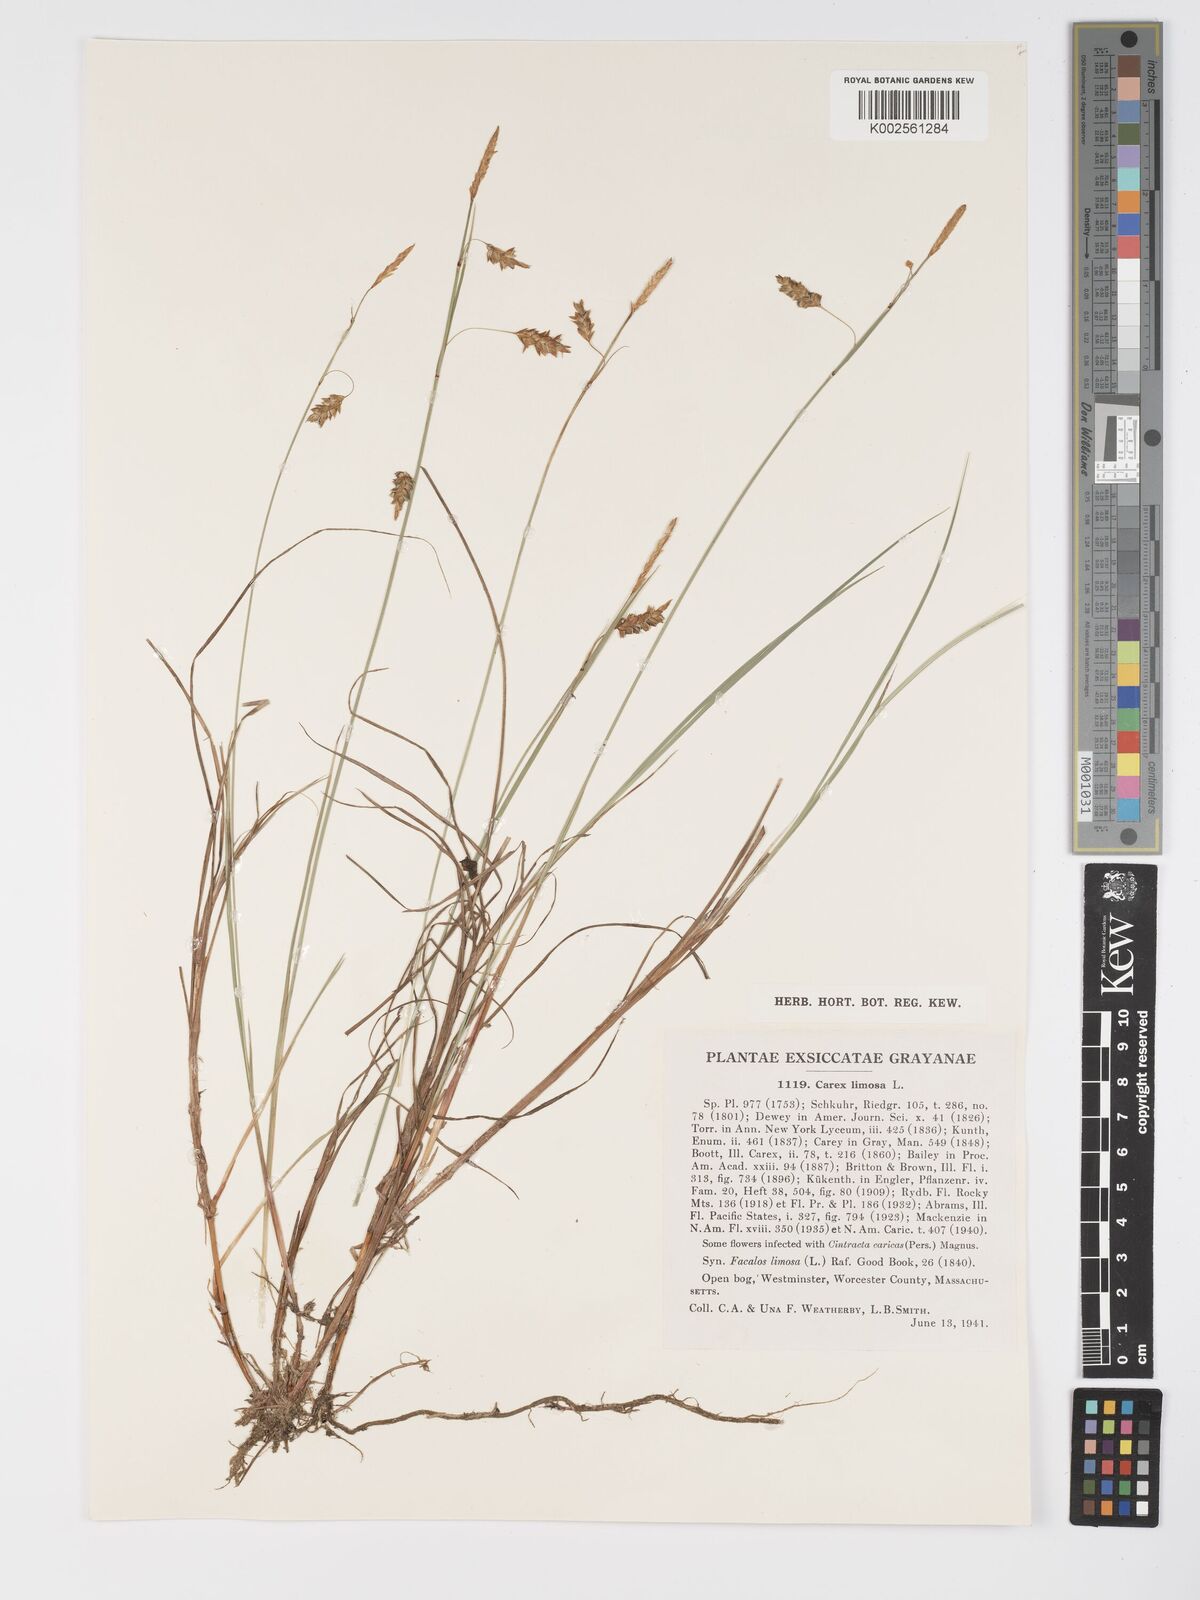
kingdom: Plantae
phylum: Tracheophyta
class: Liliopsida
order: Poales
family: Cyperaceae
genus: Carex
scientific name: Carex limosa
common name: Bog sedge
